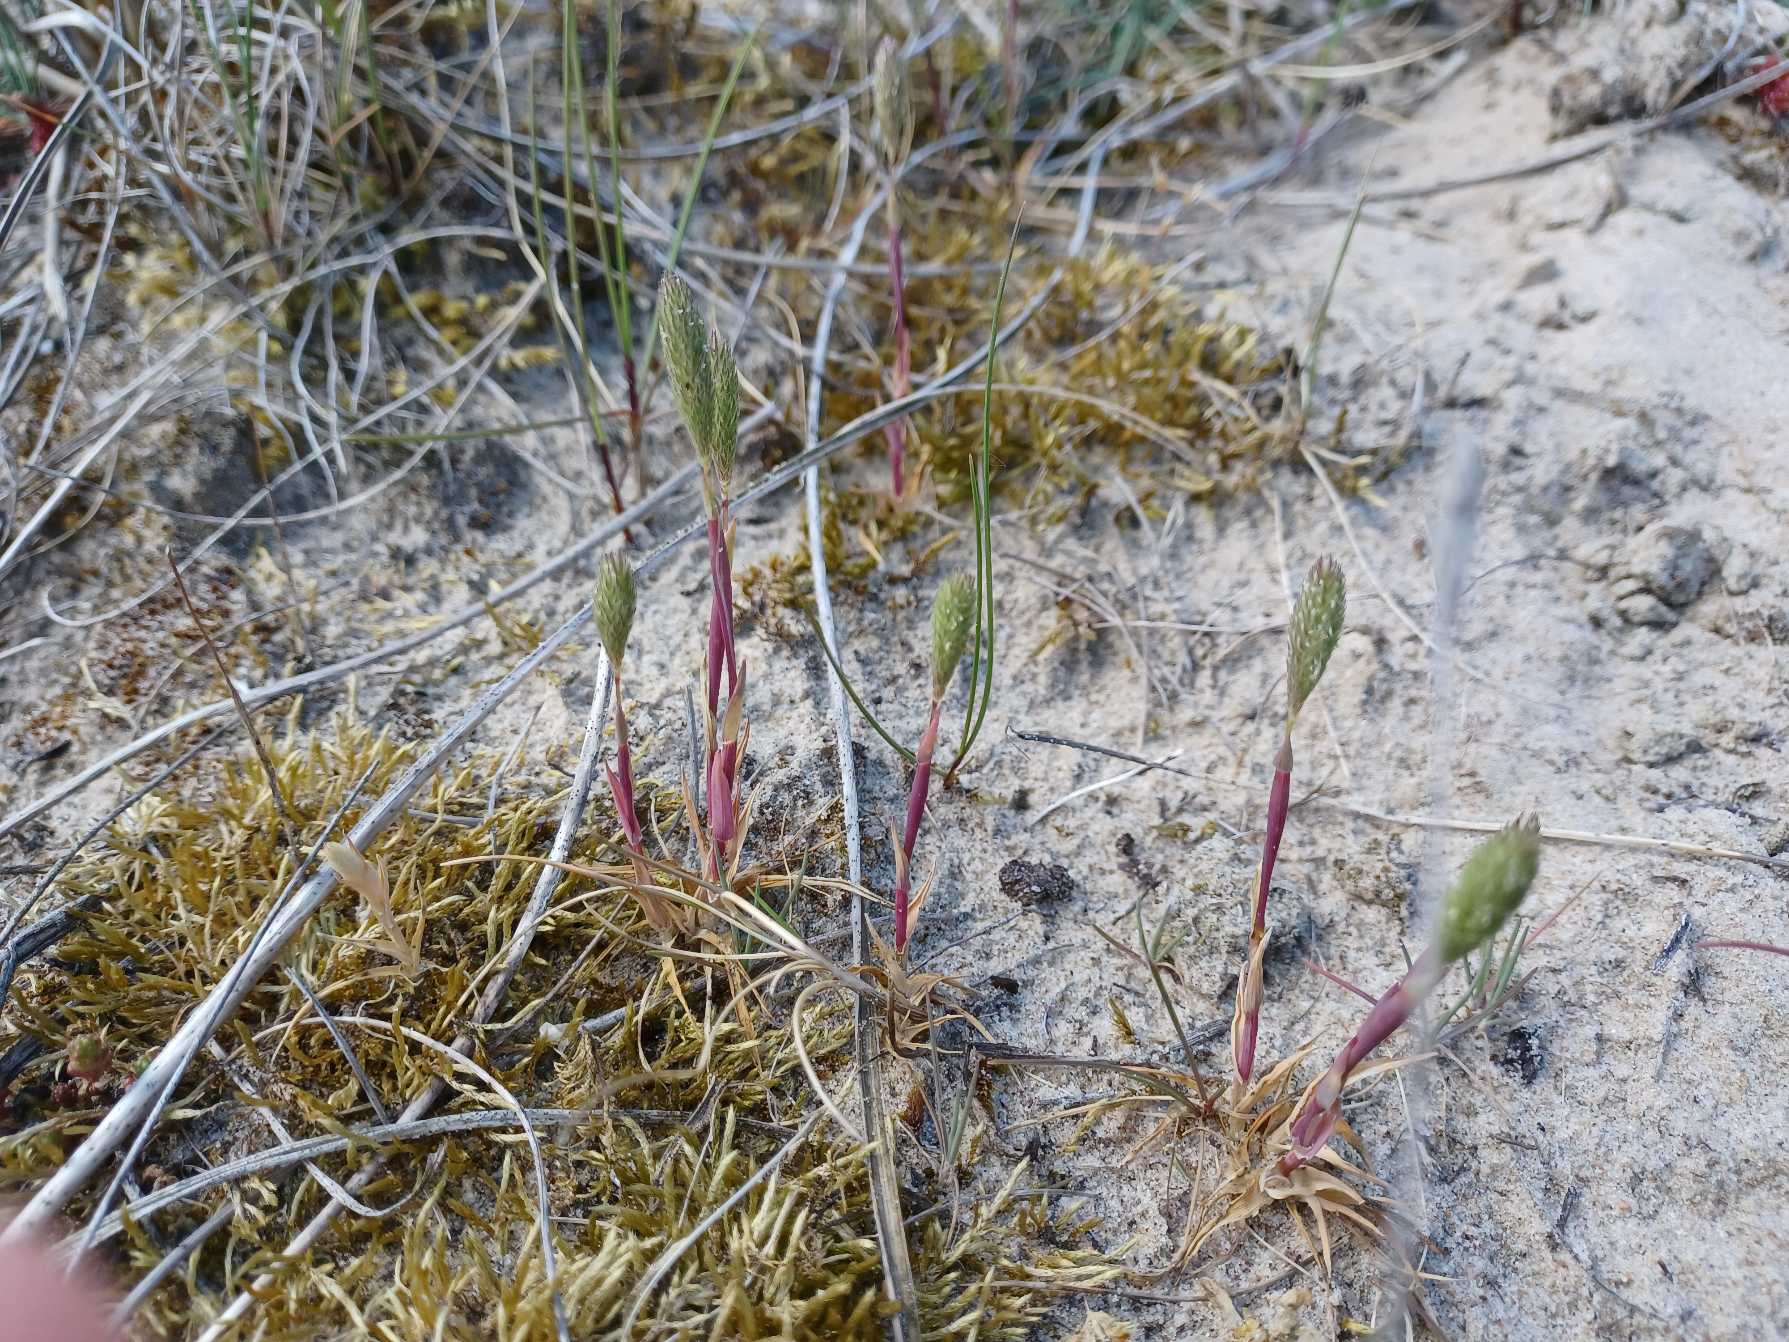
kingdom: Plantae
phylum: Tracheophyta
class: Liliopsida
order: Poales
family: Poaceae
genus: Phleum
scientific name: Phleum arenarium
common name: Sand-rottehale
